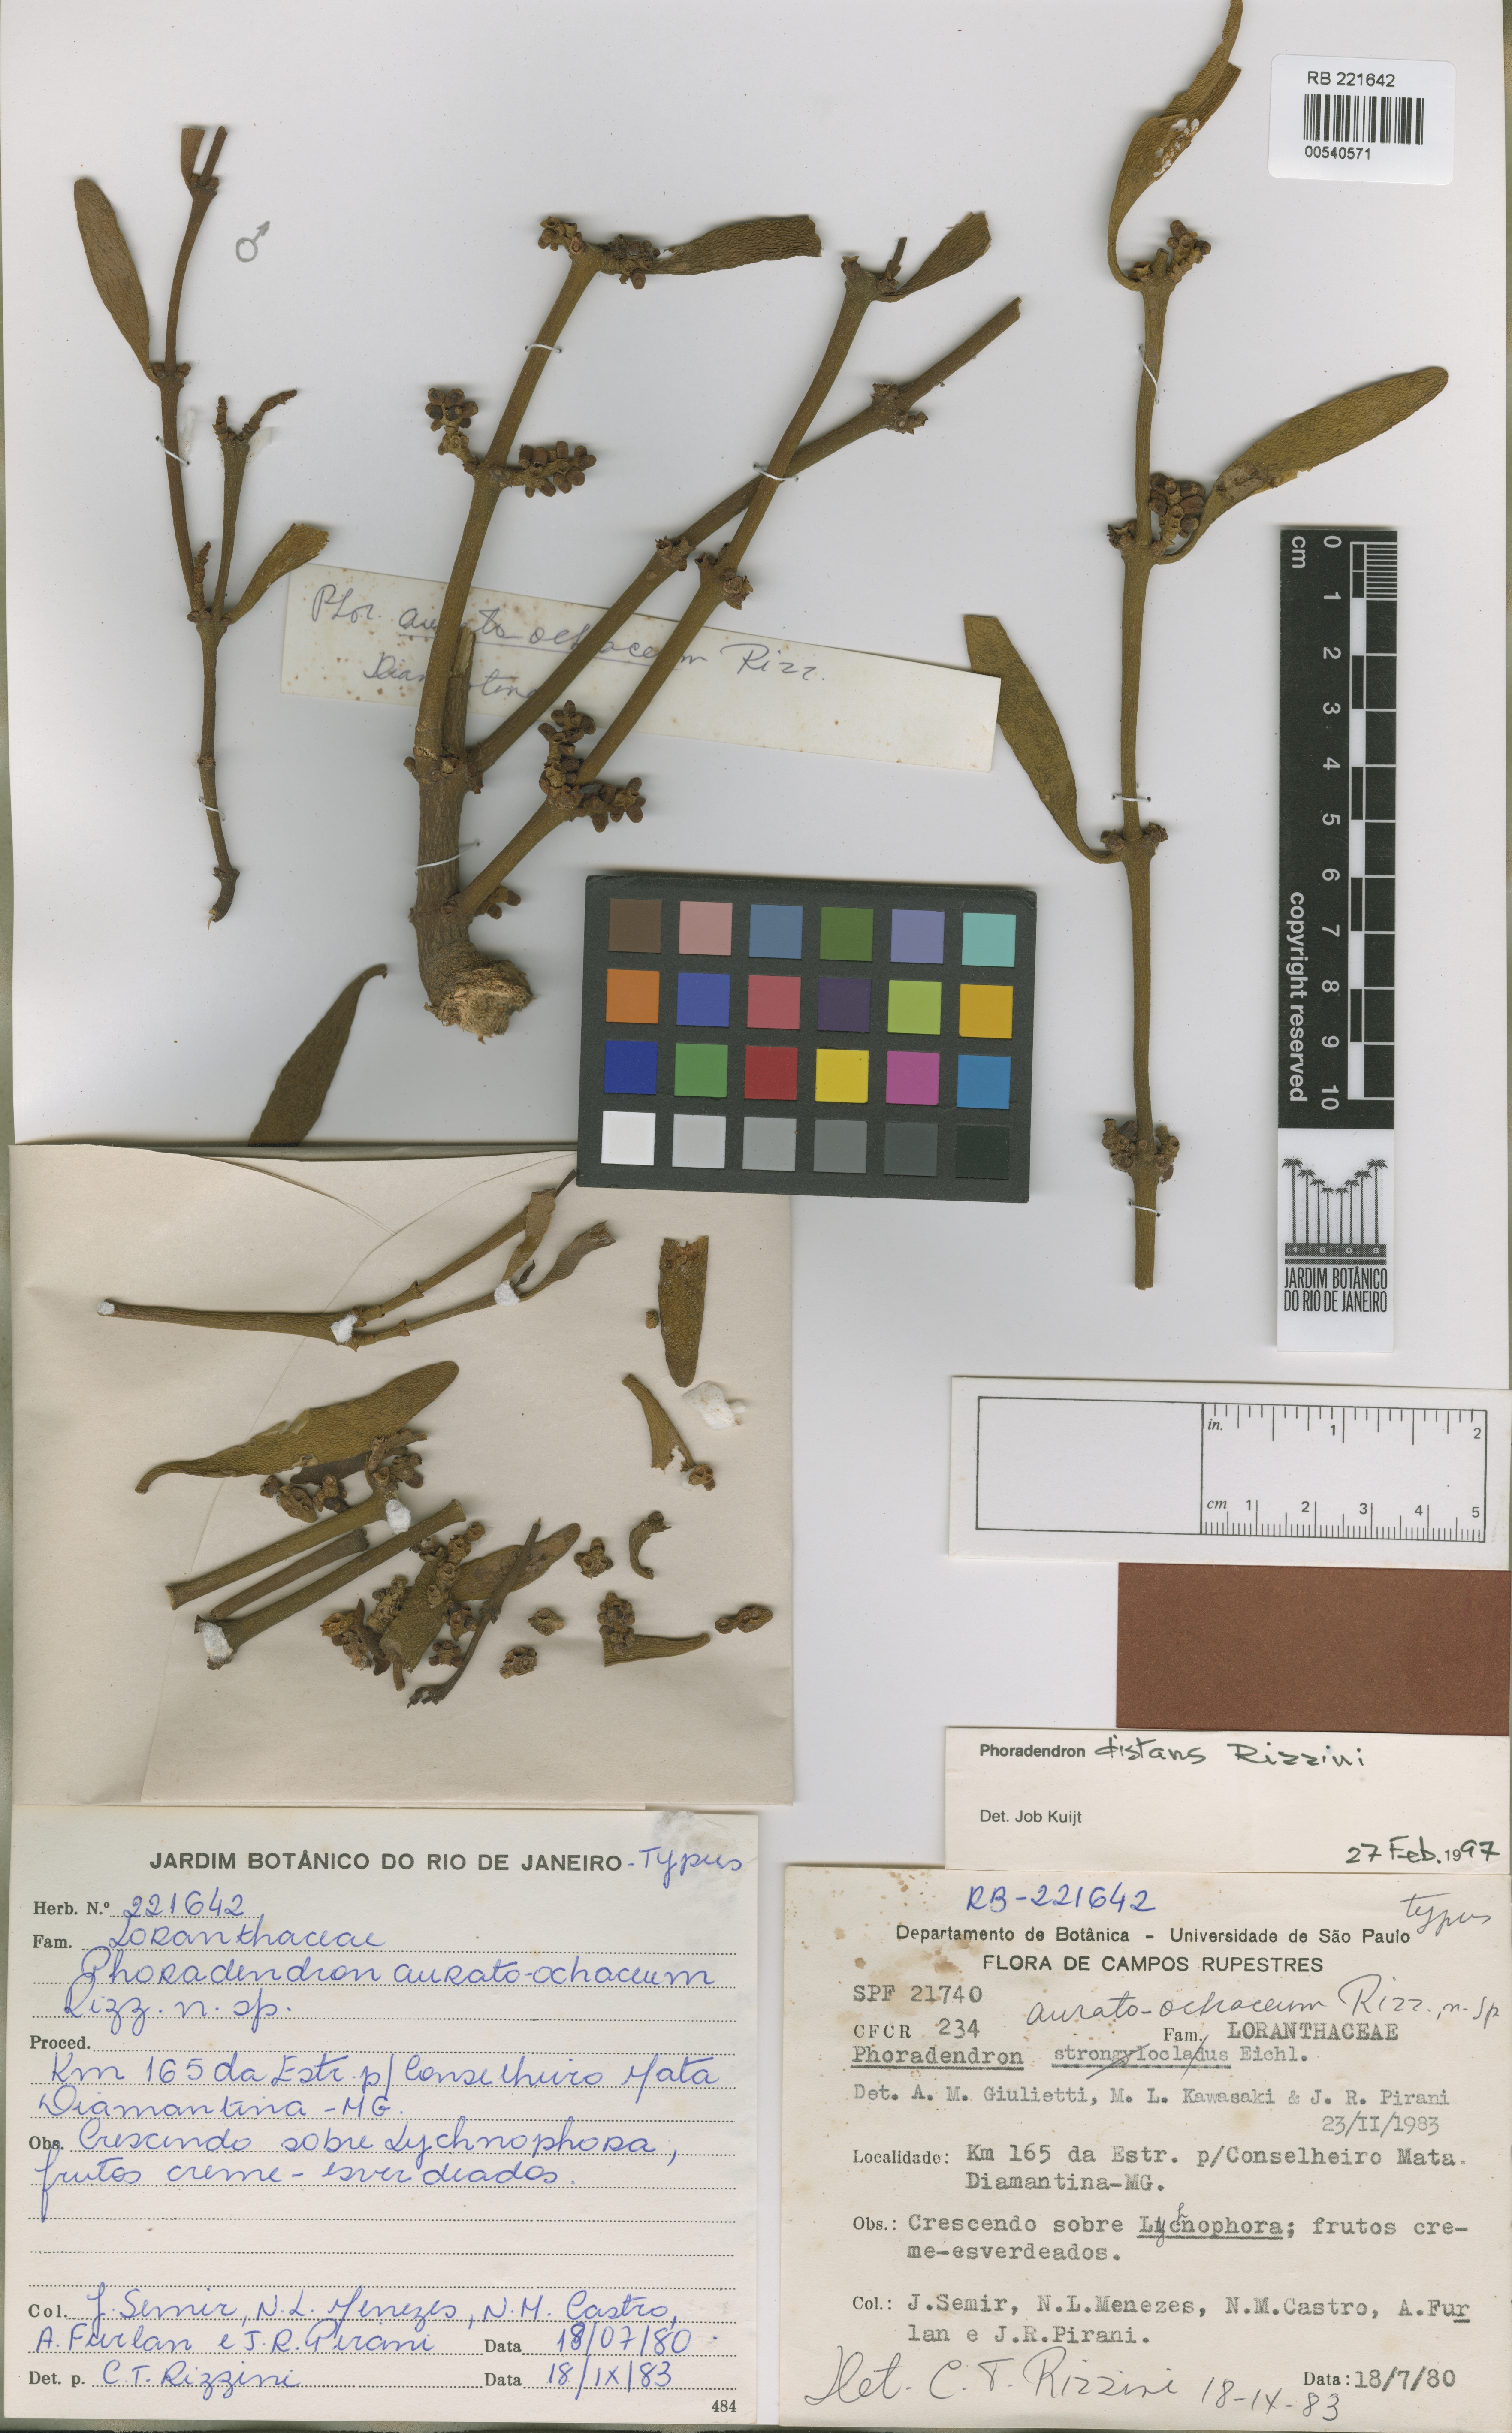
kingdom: Plantae
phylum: Tracheophyta
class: Magnoliopsida
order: Santalales
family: Viscaceae
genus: Phoradendron
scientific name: Phoradendron caripense
